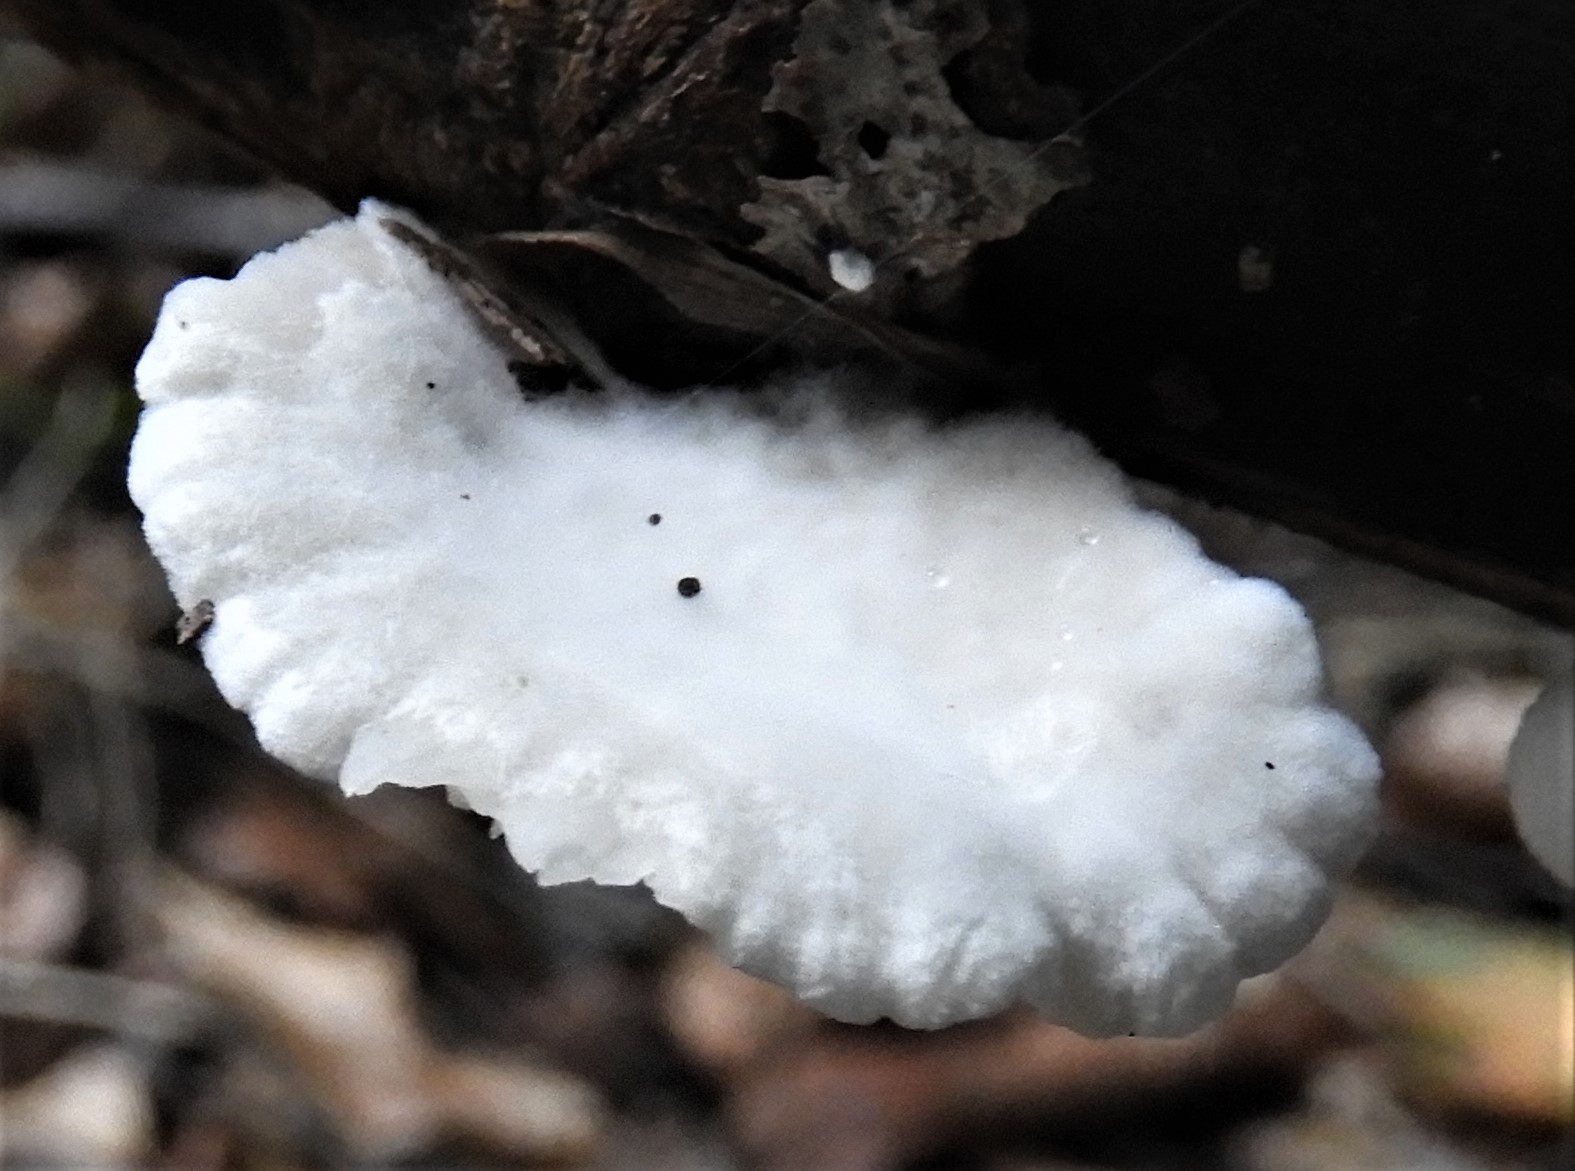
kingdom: Fungi
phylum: Basidiomycota
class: Agaricomycetes
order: Agaricales
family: Crepidotaceae
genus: Crepidotus
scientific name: Crepidotus
